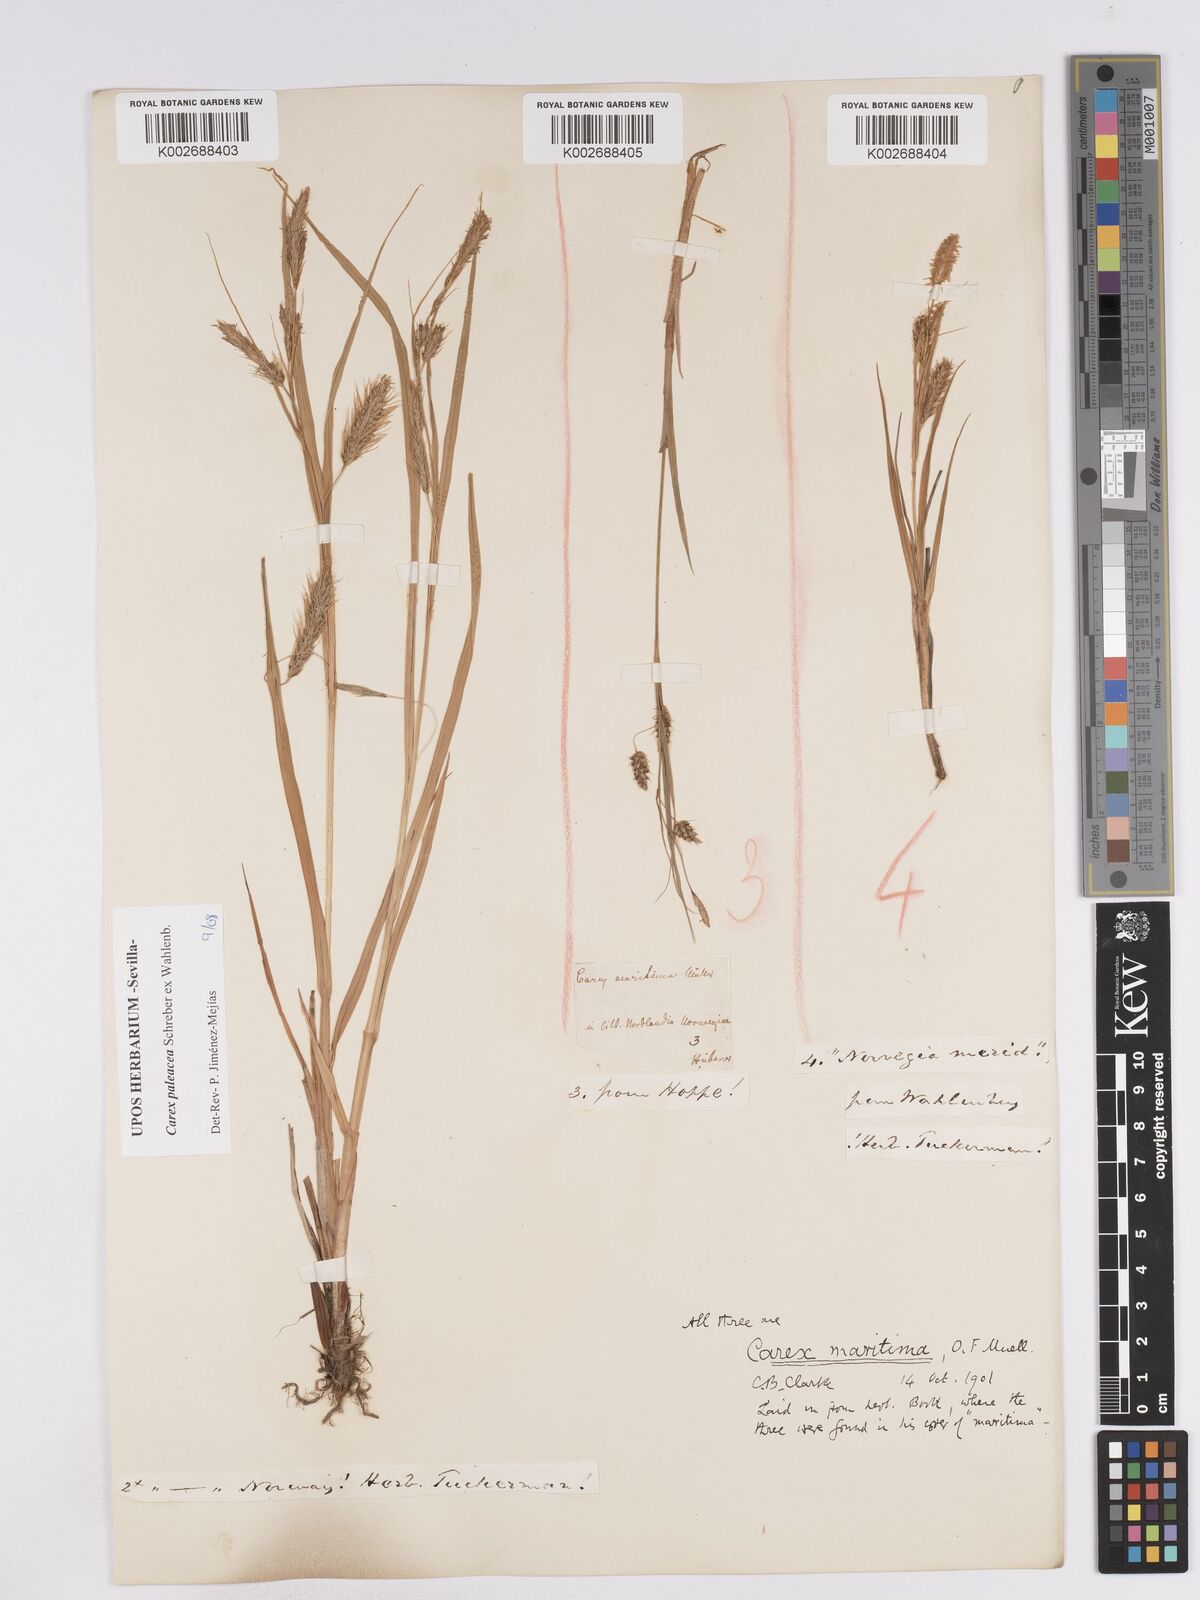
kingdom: Plantae
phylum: Tracheophyta
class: Liliopsida
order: Poales
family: Cyperaceae
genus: Carex
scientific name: Carex paleacea
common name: Chaffy sedge
